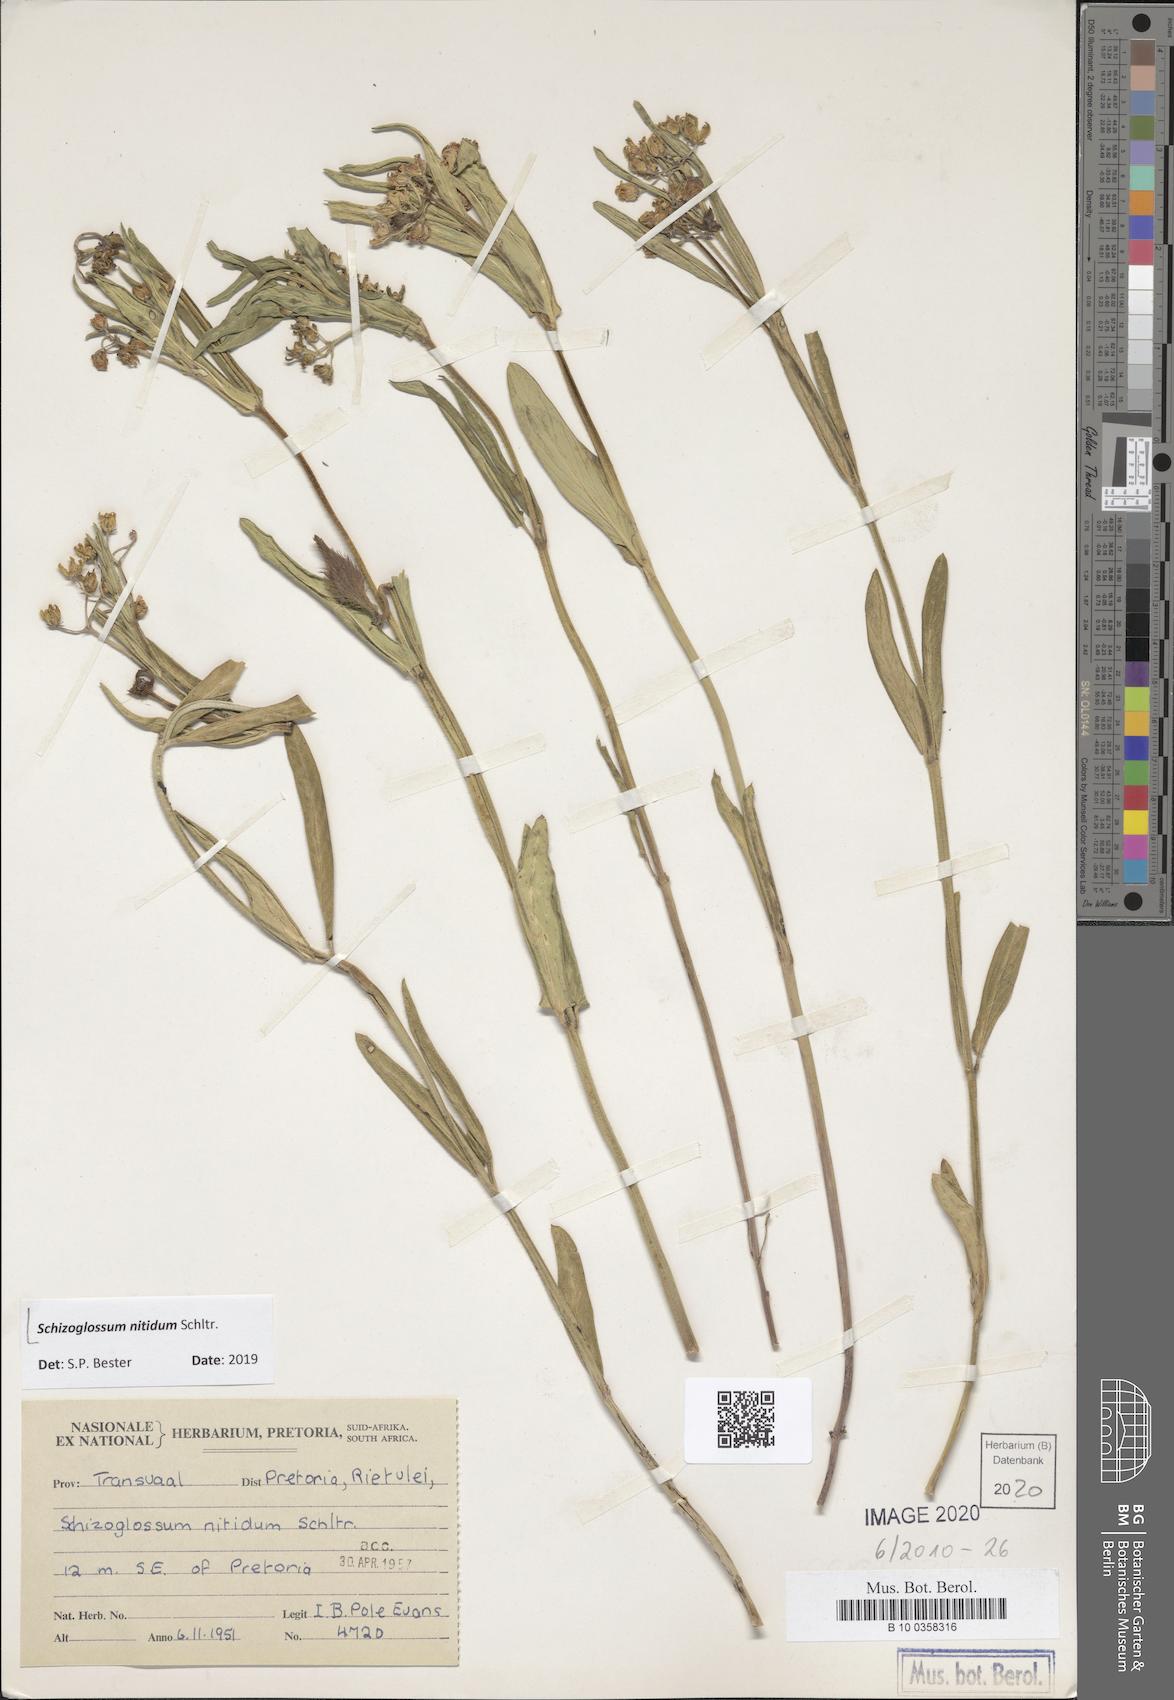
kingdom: Plantae
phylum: Tracheophyta
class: Magnoliopsida
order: Gentianales
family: Apocynaceae
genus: Schizoglossum
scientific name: Schizoglossum nitidum
